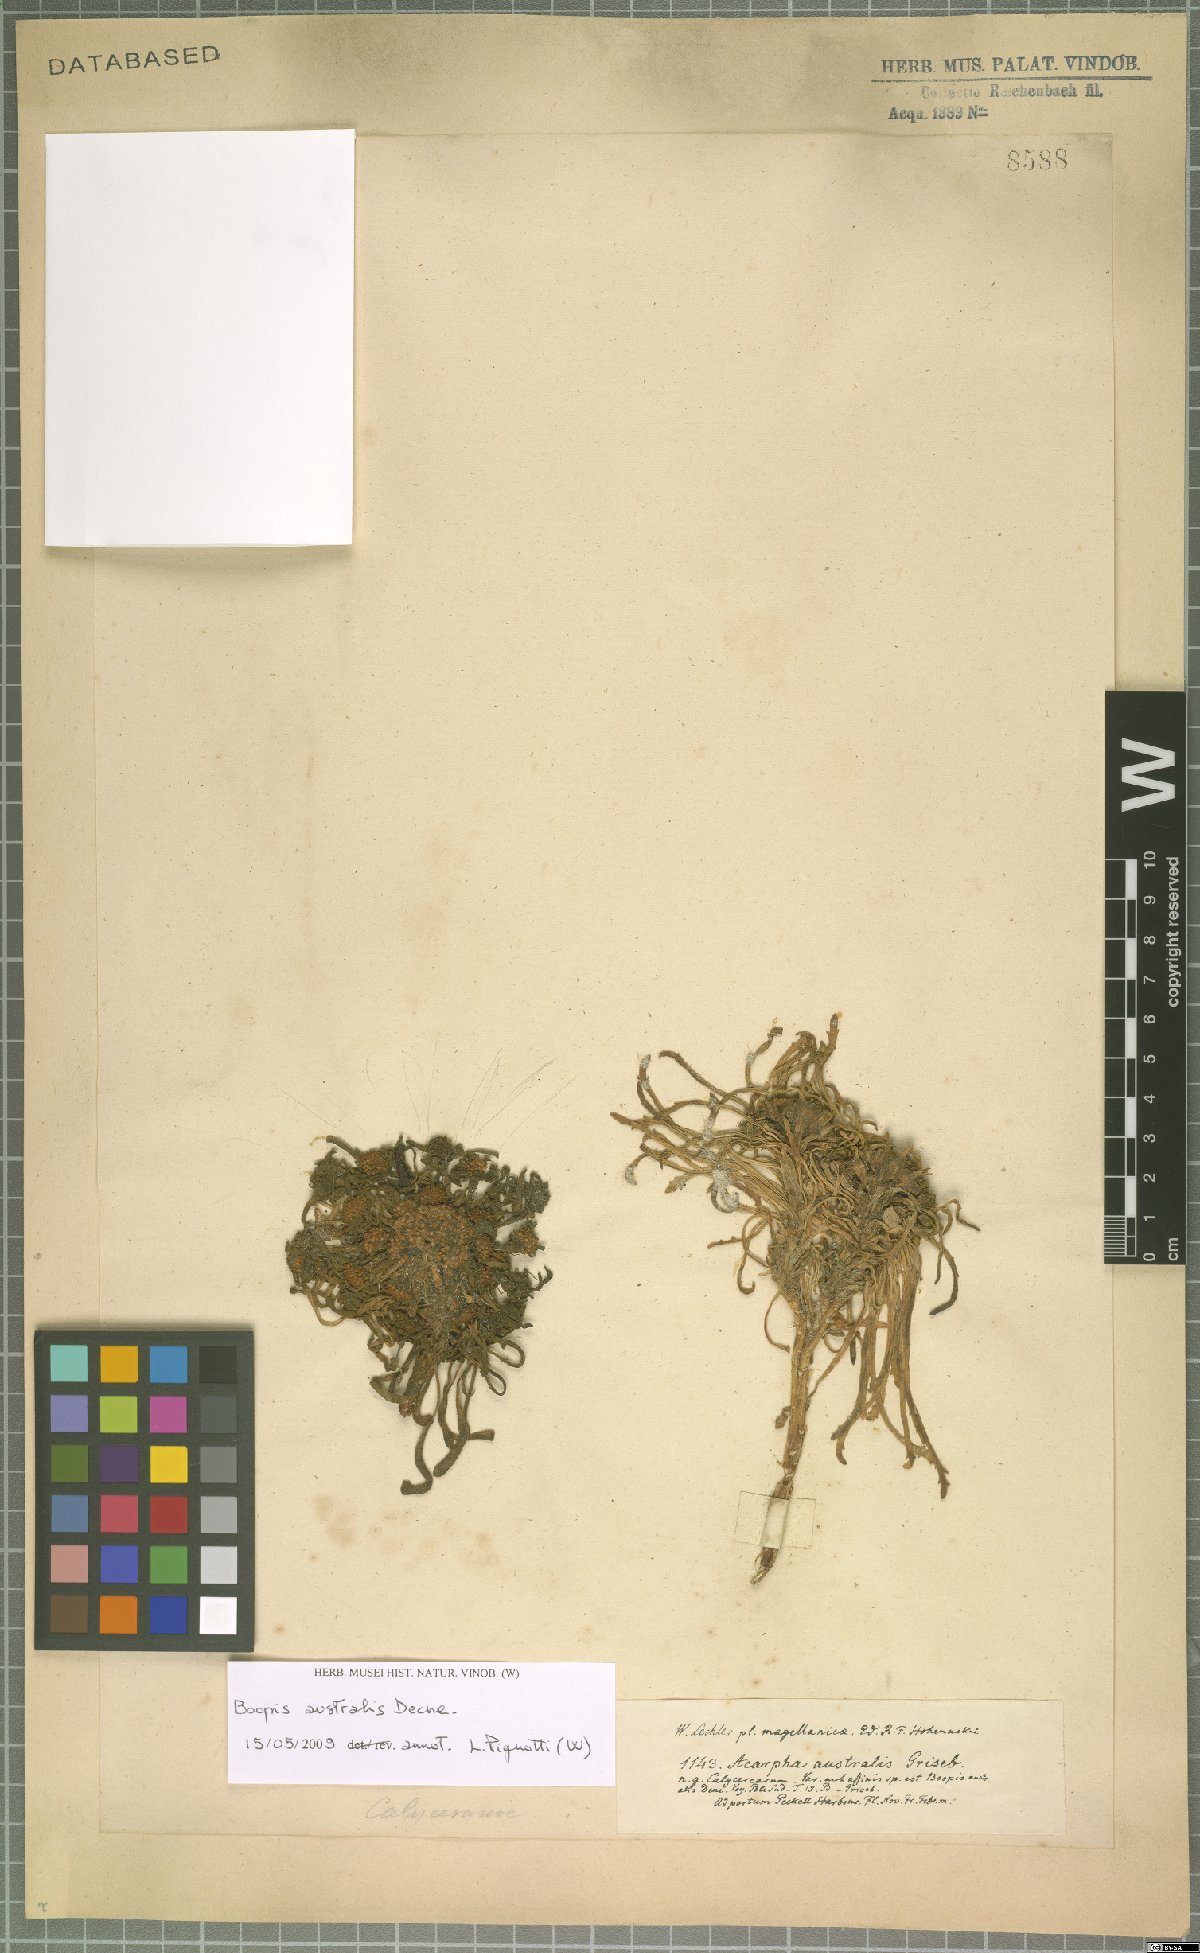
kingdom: Plantae
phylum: Tracheophyta
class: Magnoliopsida
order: Asterales
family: Calyceraceae
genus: Gamocarpha
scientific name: Gamocarpha australis
